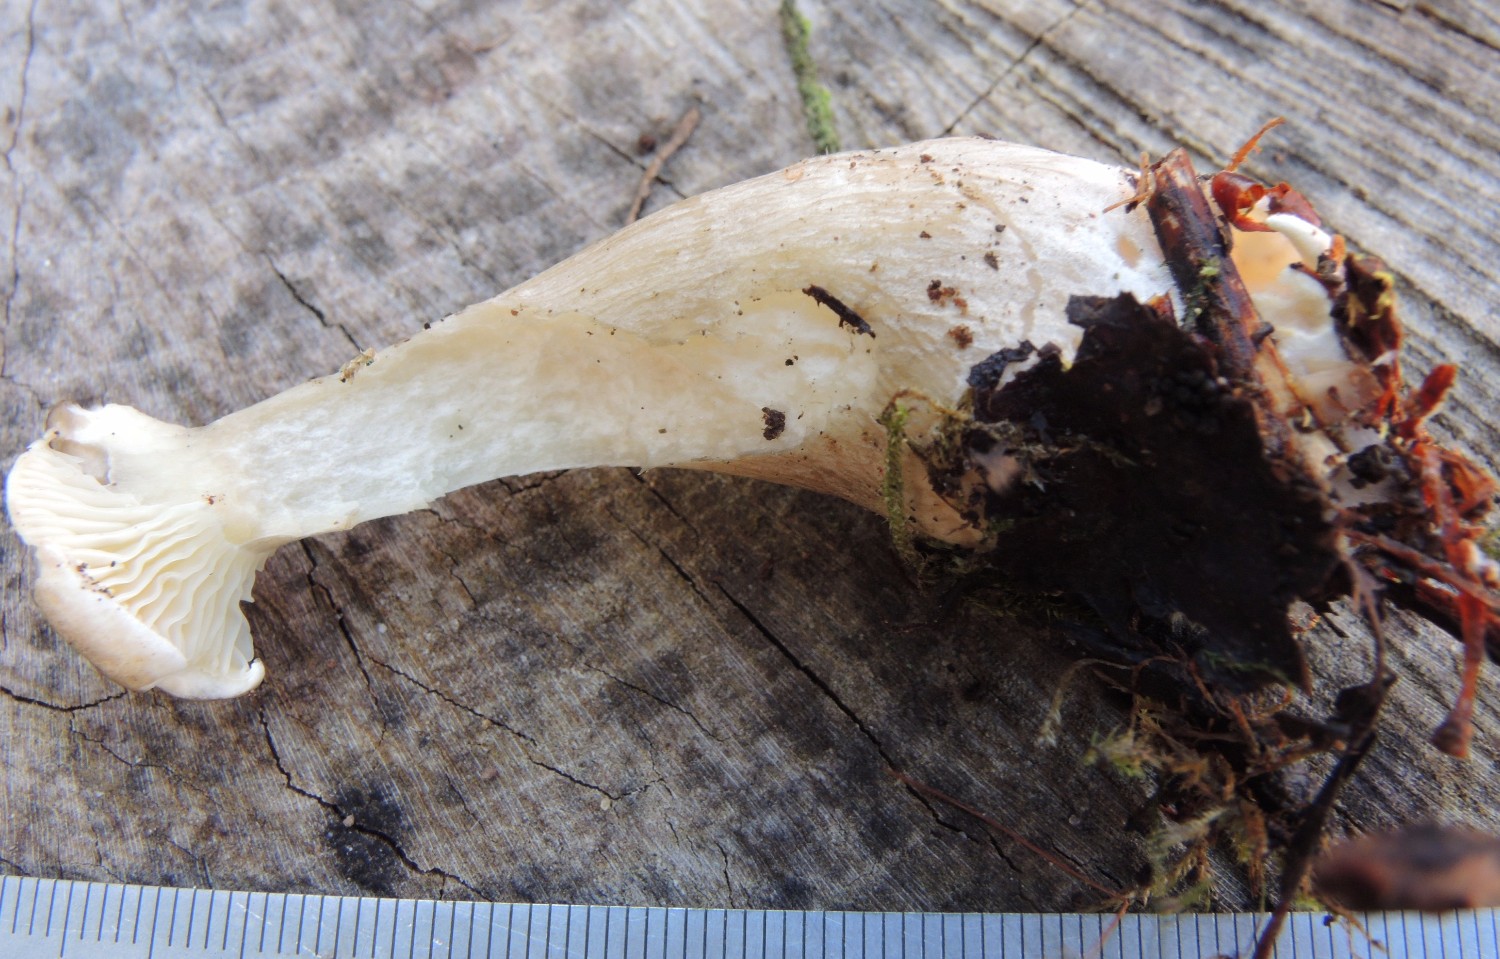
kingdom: Fungi
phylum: Basidiomycota
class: Agaricomycetes
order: Agaricales
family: Hygrophoraceae
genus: Ampulloclitocybe
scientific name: Ampulloclitocybe clavipes
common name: køllefod
